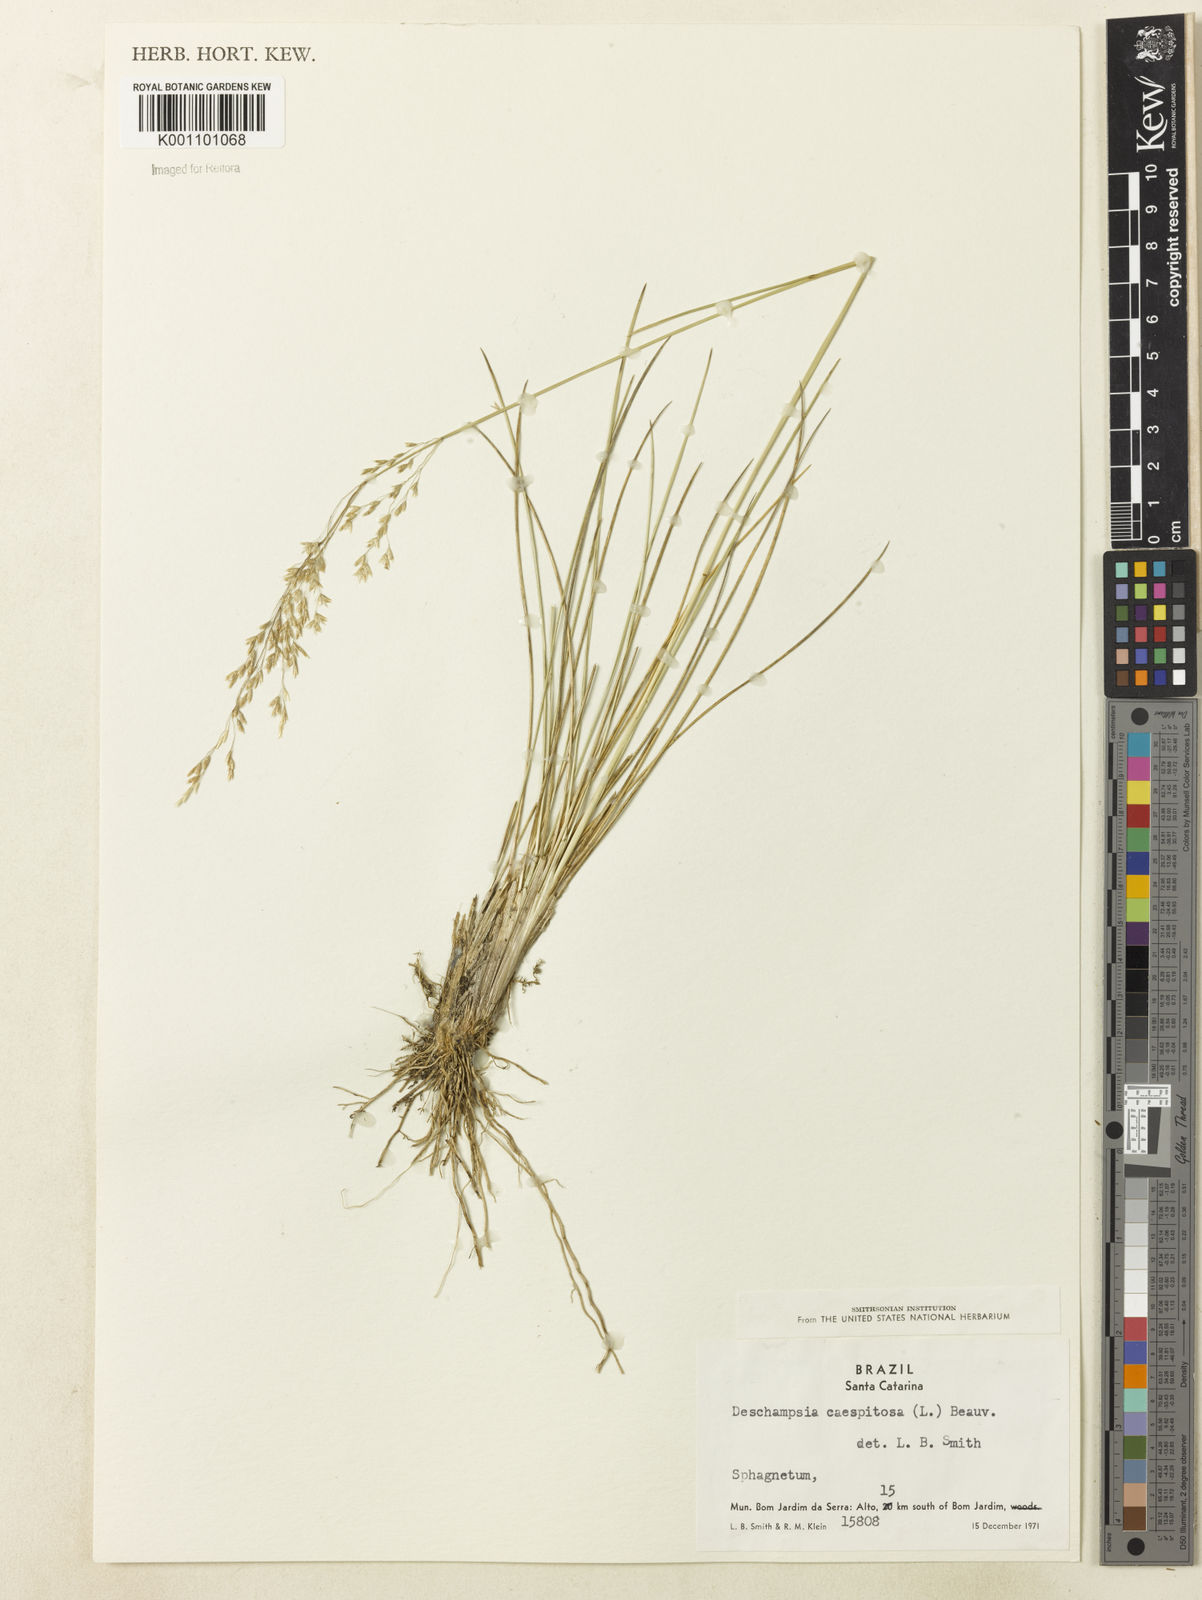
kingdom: Plantae
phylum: Tracheophyta
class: Liliopsida
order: Poales
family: Poaceae
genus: Deschampsia
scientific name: Deschampsia
